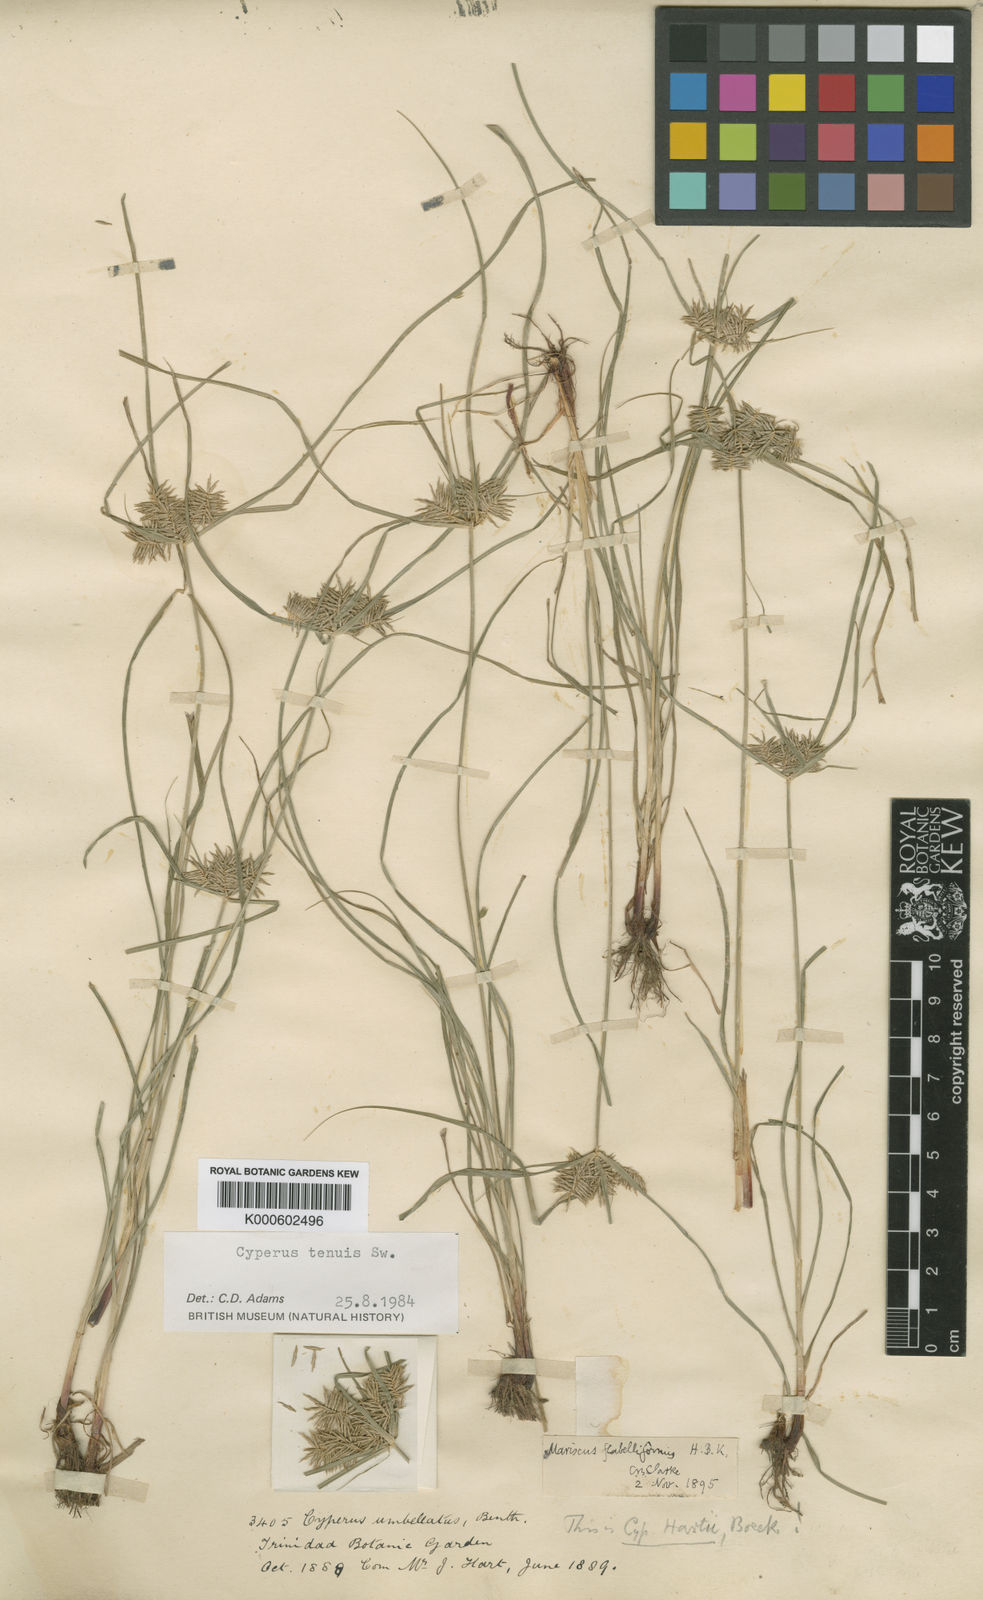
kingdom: Plantae
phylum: Tracheophyta
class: Liliopsida
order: Poales
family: Cyperaceae
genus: Cyperus
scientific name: Cyperus tenuis
